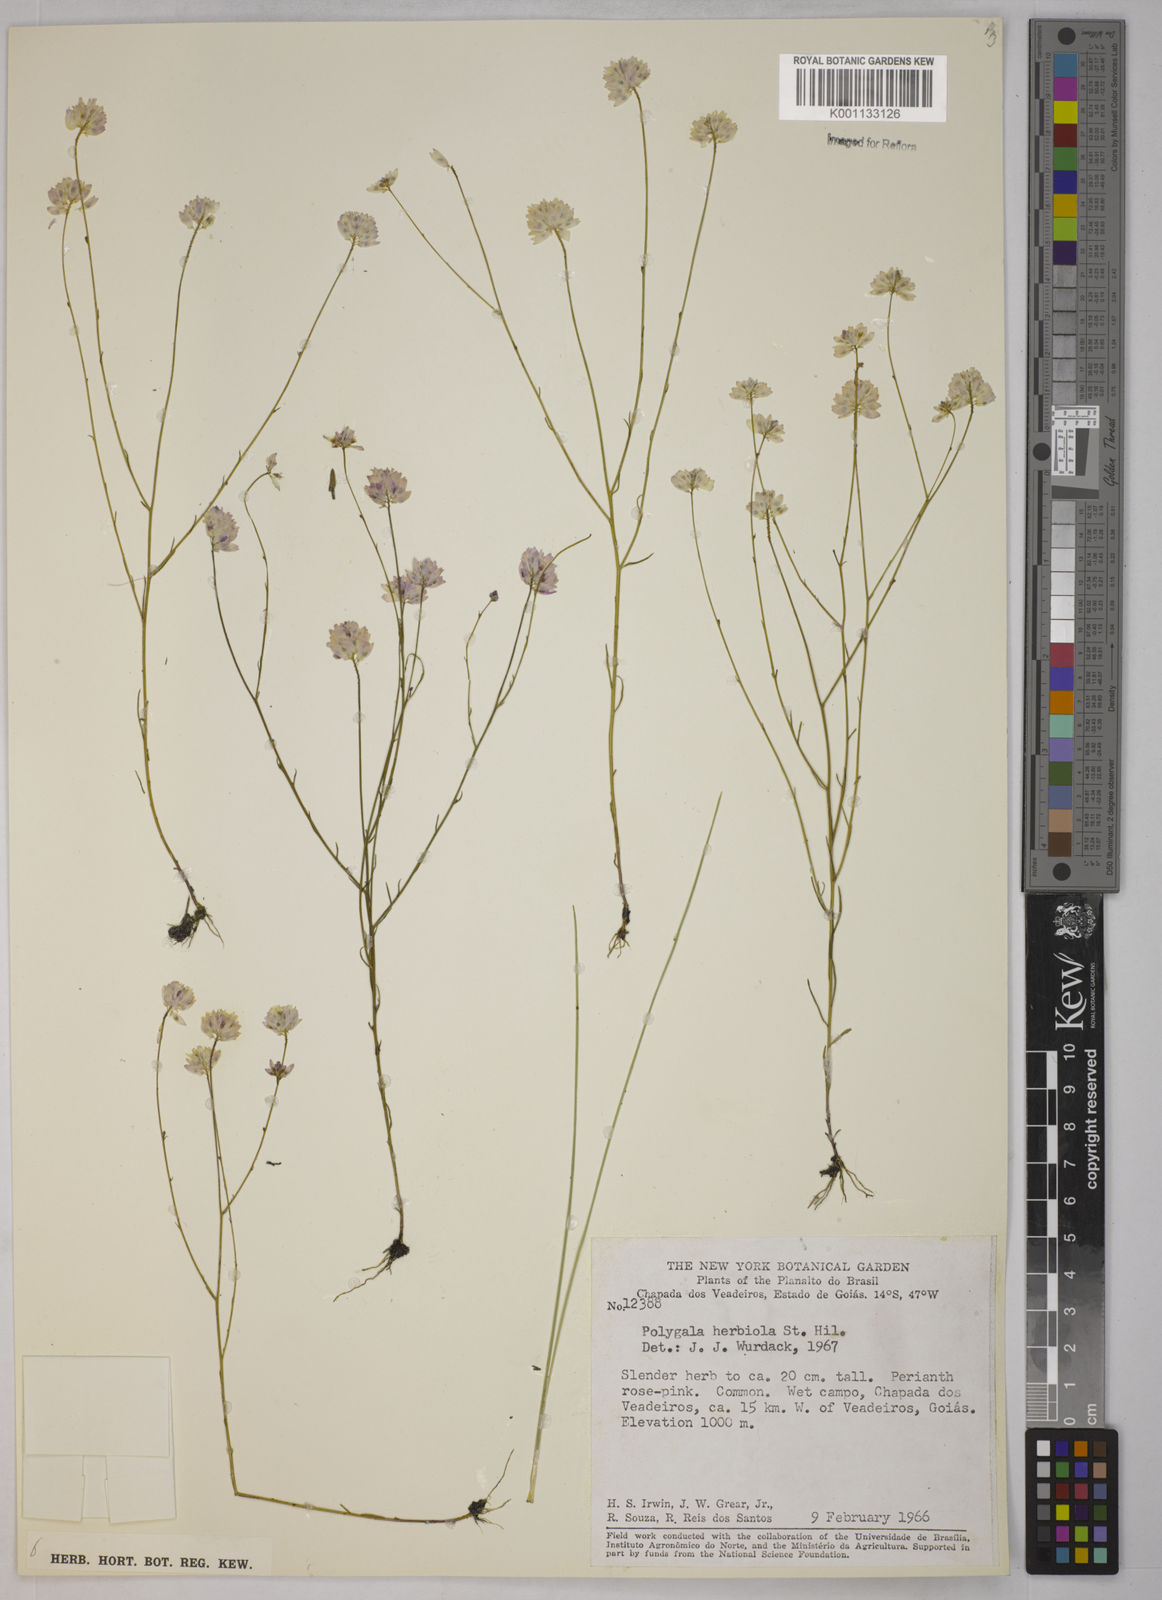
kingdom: Plantae
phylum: Tracheophyta
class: Magnoliopsida
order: Fabales
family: Polygalaceae
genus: Polygala
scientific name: Polygala herbiola
